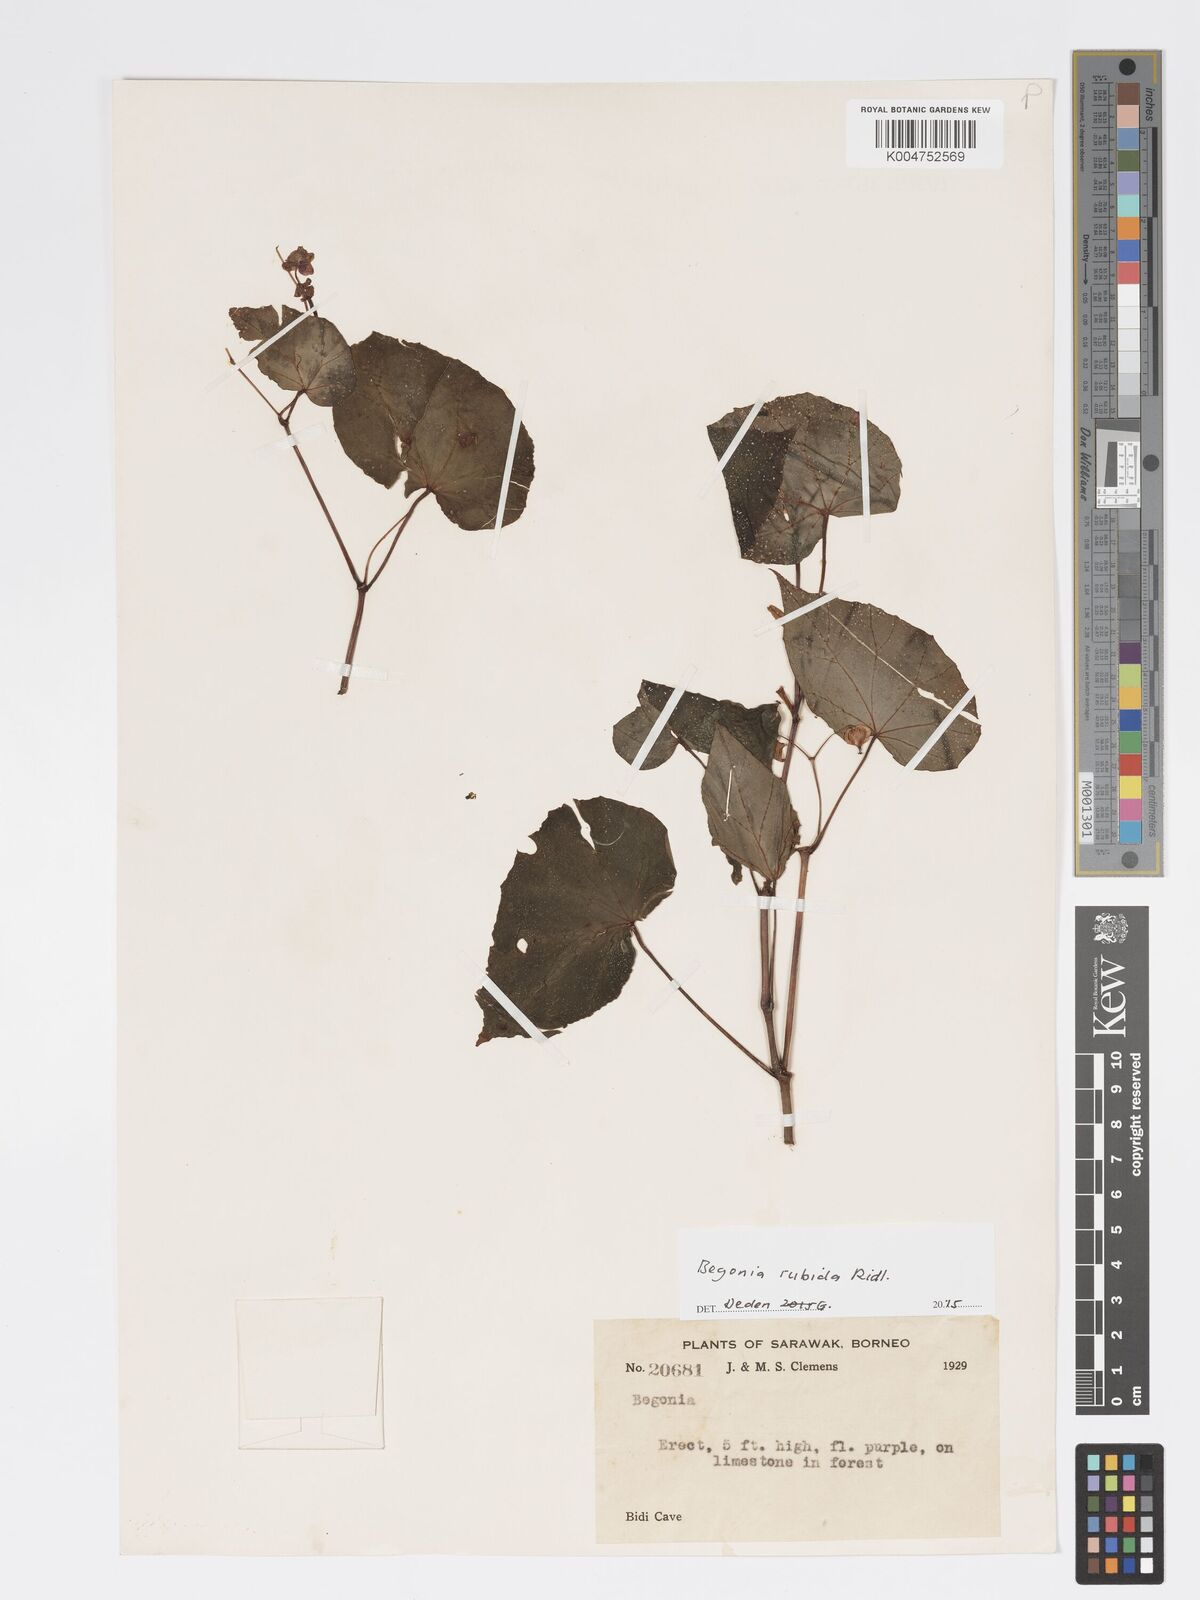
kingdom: Plantae
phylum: Tracheophyta
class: Magnoliopsida
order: Cucurbitales
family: Begoniaceae
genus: Begonia
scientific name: Begonia rubida
